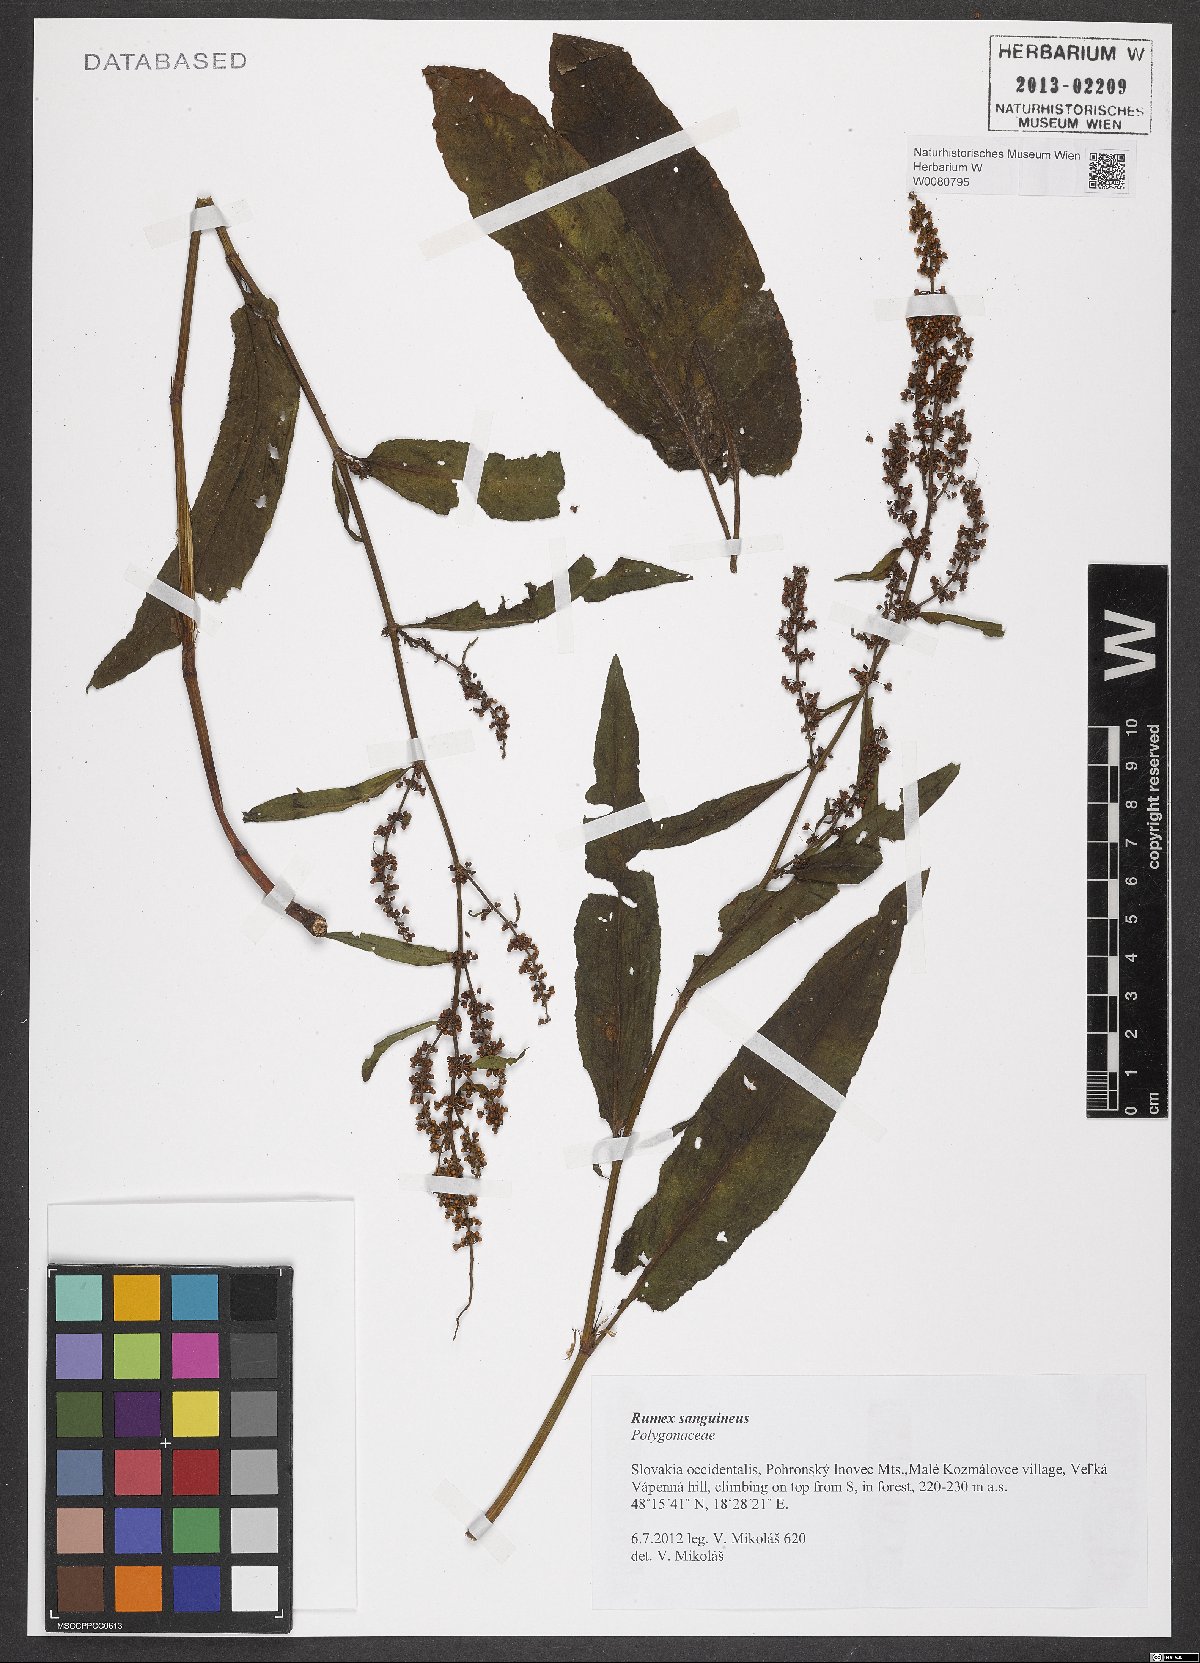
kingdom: Plantae
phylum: Tracheophyta
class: Magnoliopsida
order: Caryophyllales
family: Polygonaceae
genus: Rumex
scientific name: Rumex sanguineus
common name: Wood dock
